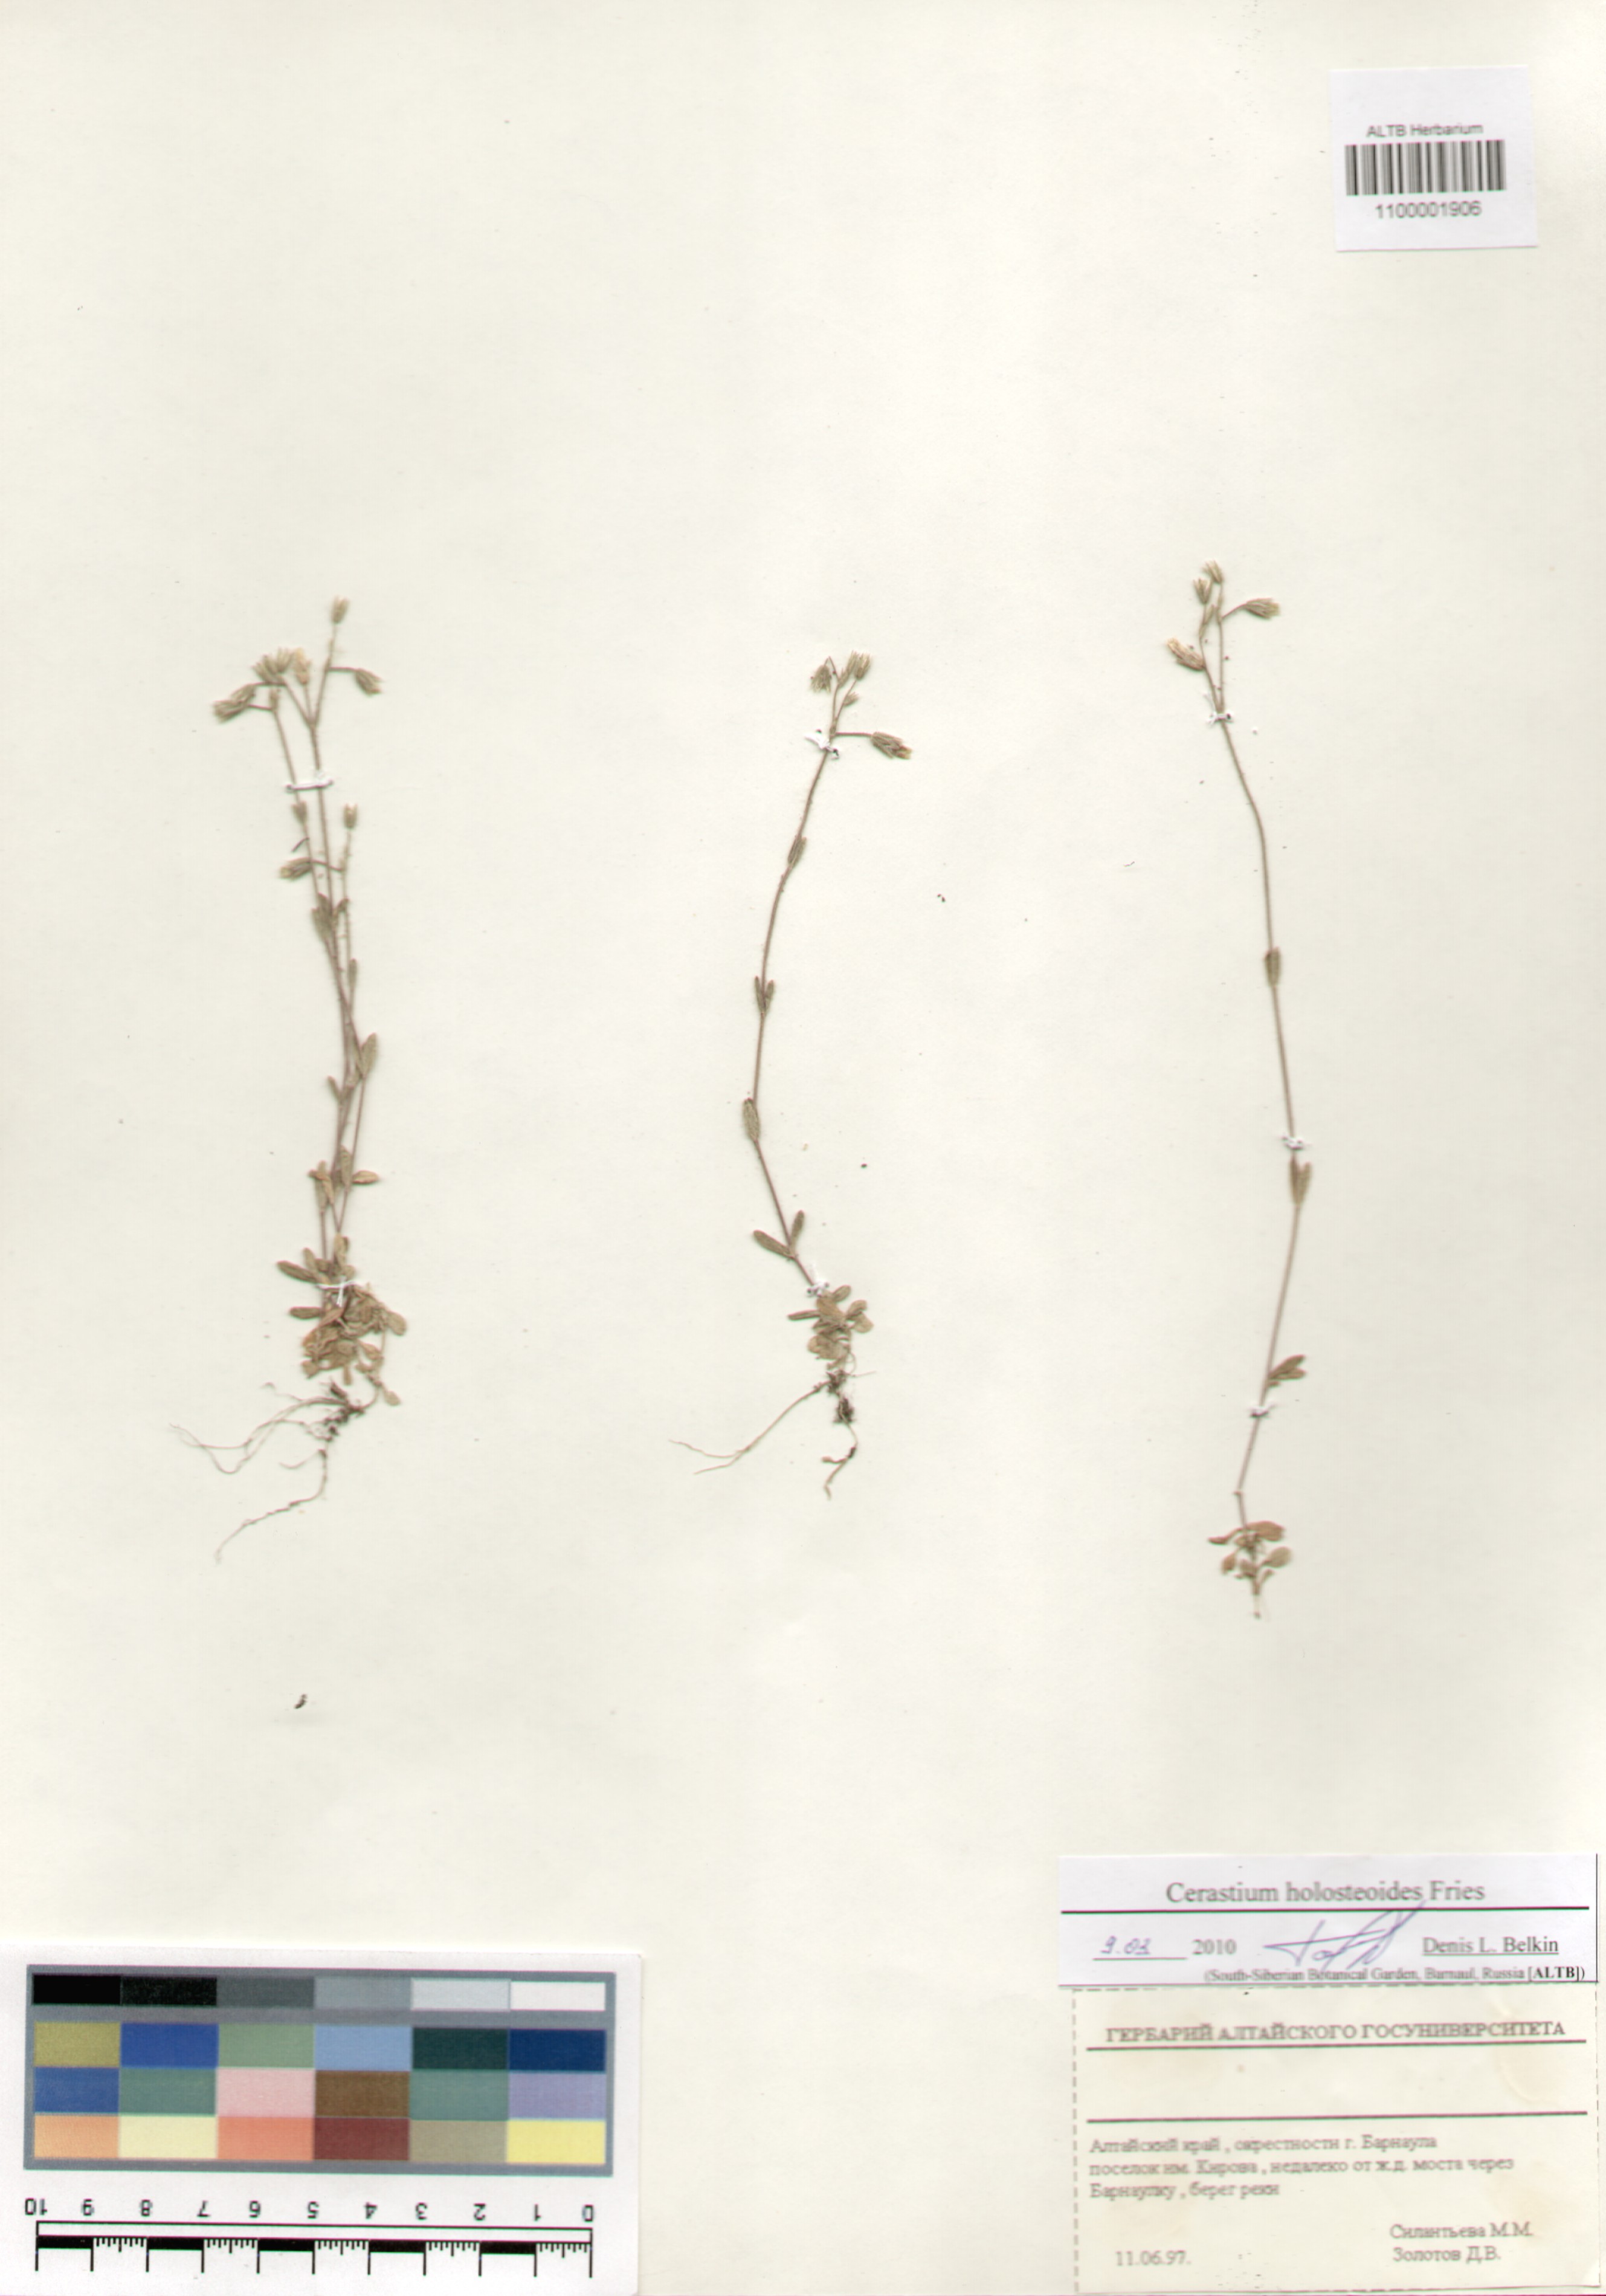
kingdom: Plantae
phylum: Tracheophyta
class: Magnoliopsida
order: Caryophyllales
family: Caryophyllaceae
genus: Cerastium
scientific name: Cerastium holosteoides
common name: Big chickweed
